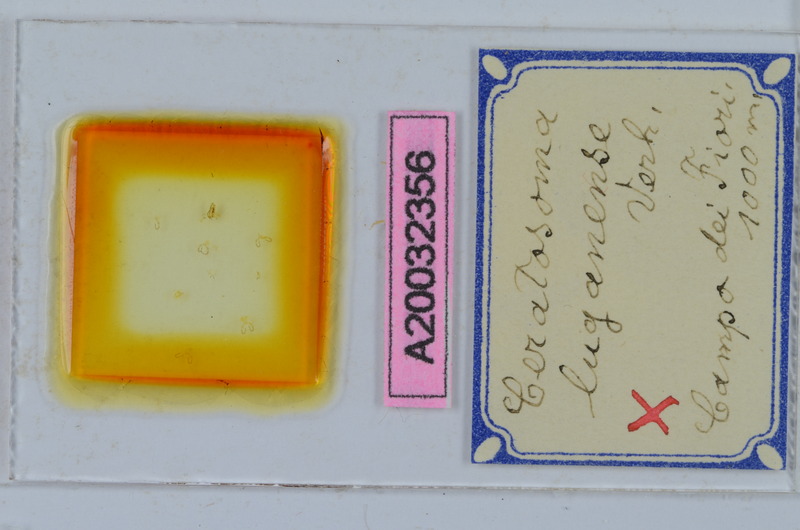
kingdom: Animalia
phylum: Arthropoda
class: Diplopoda
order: Chordeumatida
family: Craspedosomatidae
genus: Bomogona
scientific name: Bomogona lombardica
